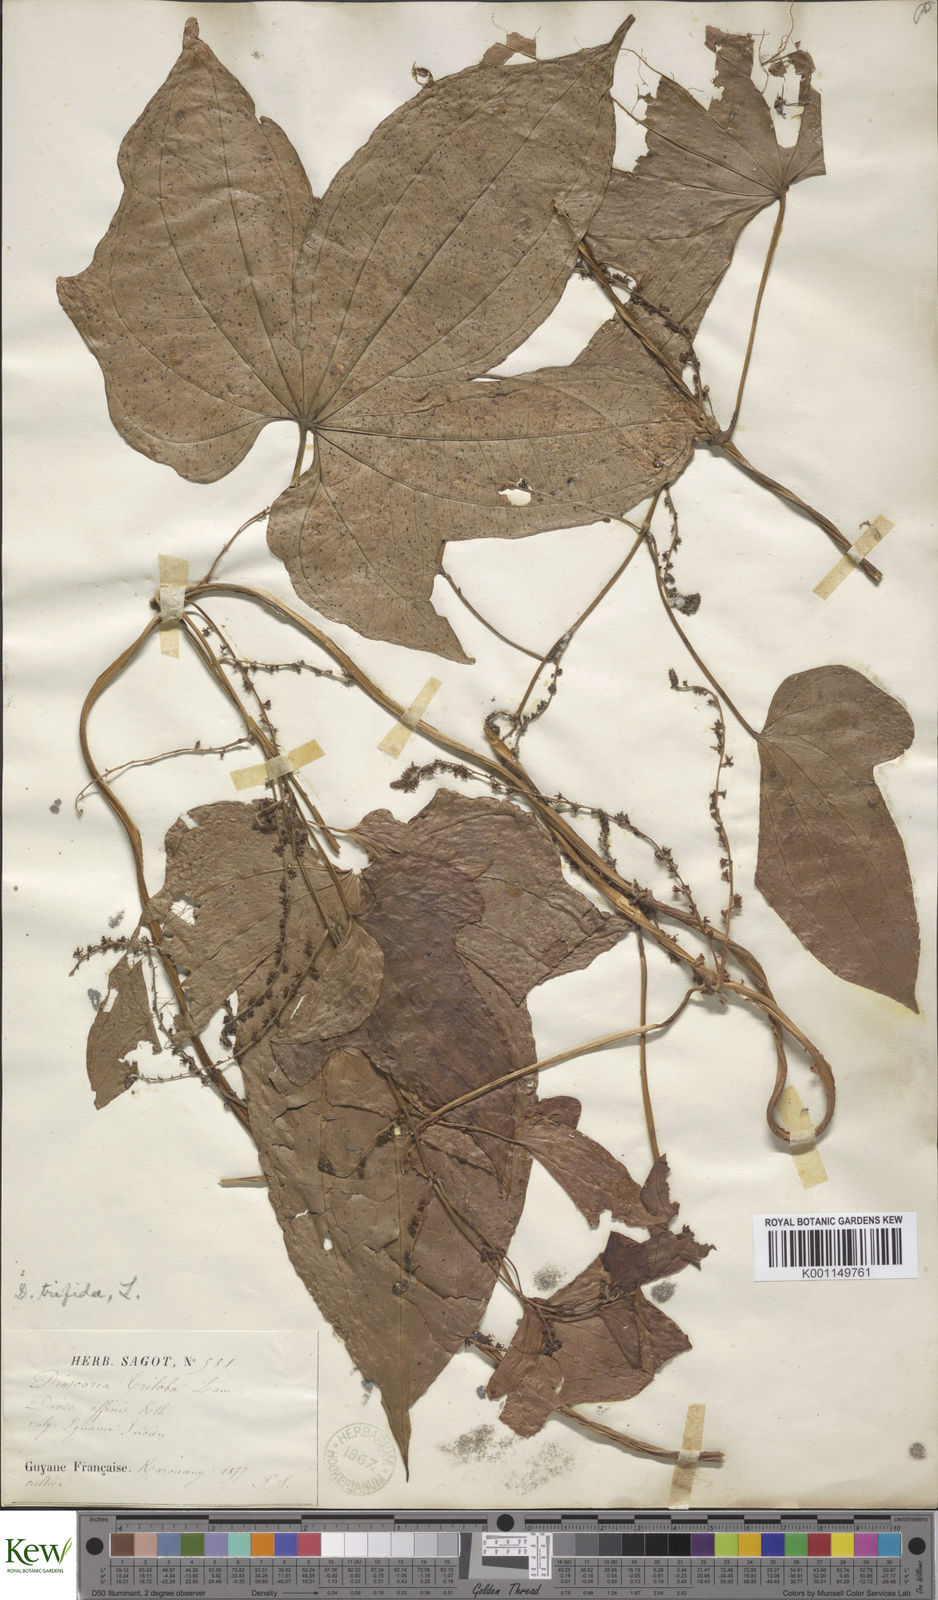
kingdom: Plantae
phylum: Tracheophyta
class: Liliopsida
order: Dioscoreales
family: Dioscoreaceae
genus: Dioscorea
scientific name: Dioscorea trifida
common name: Cush-cush
